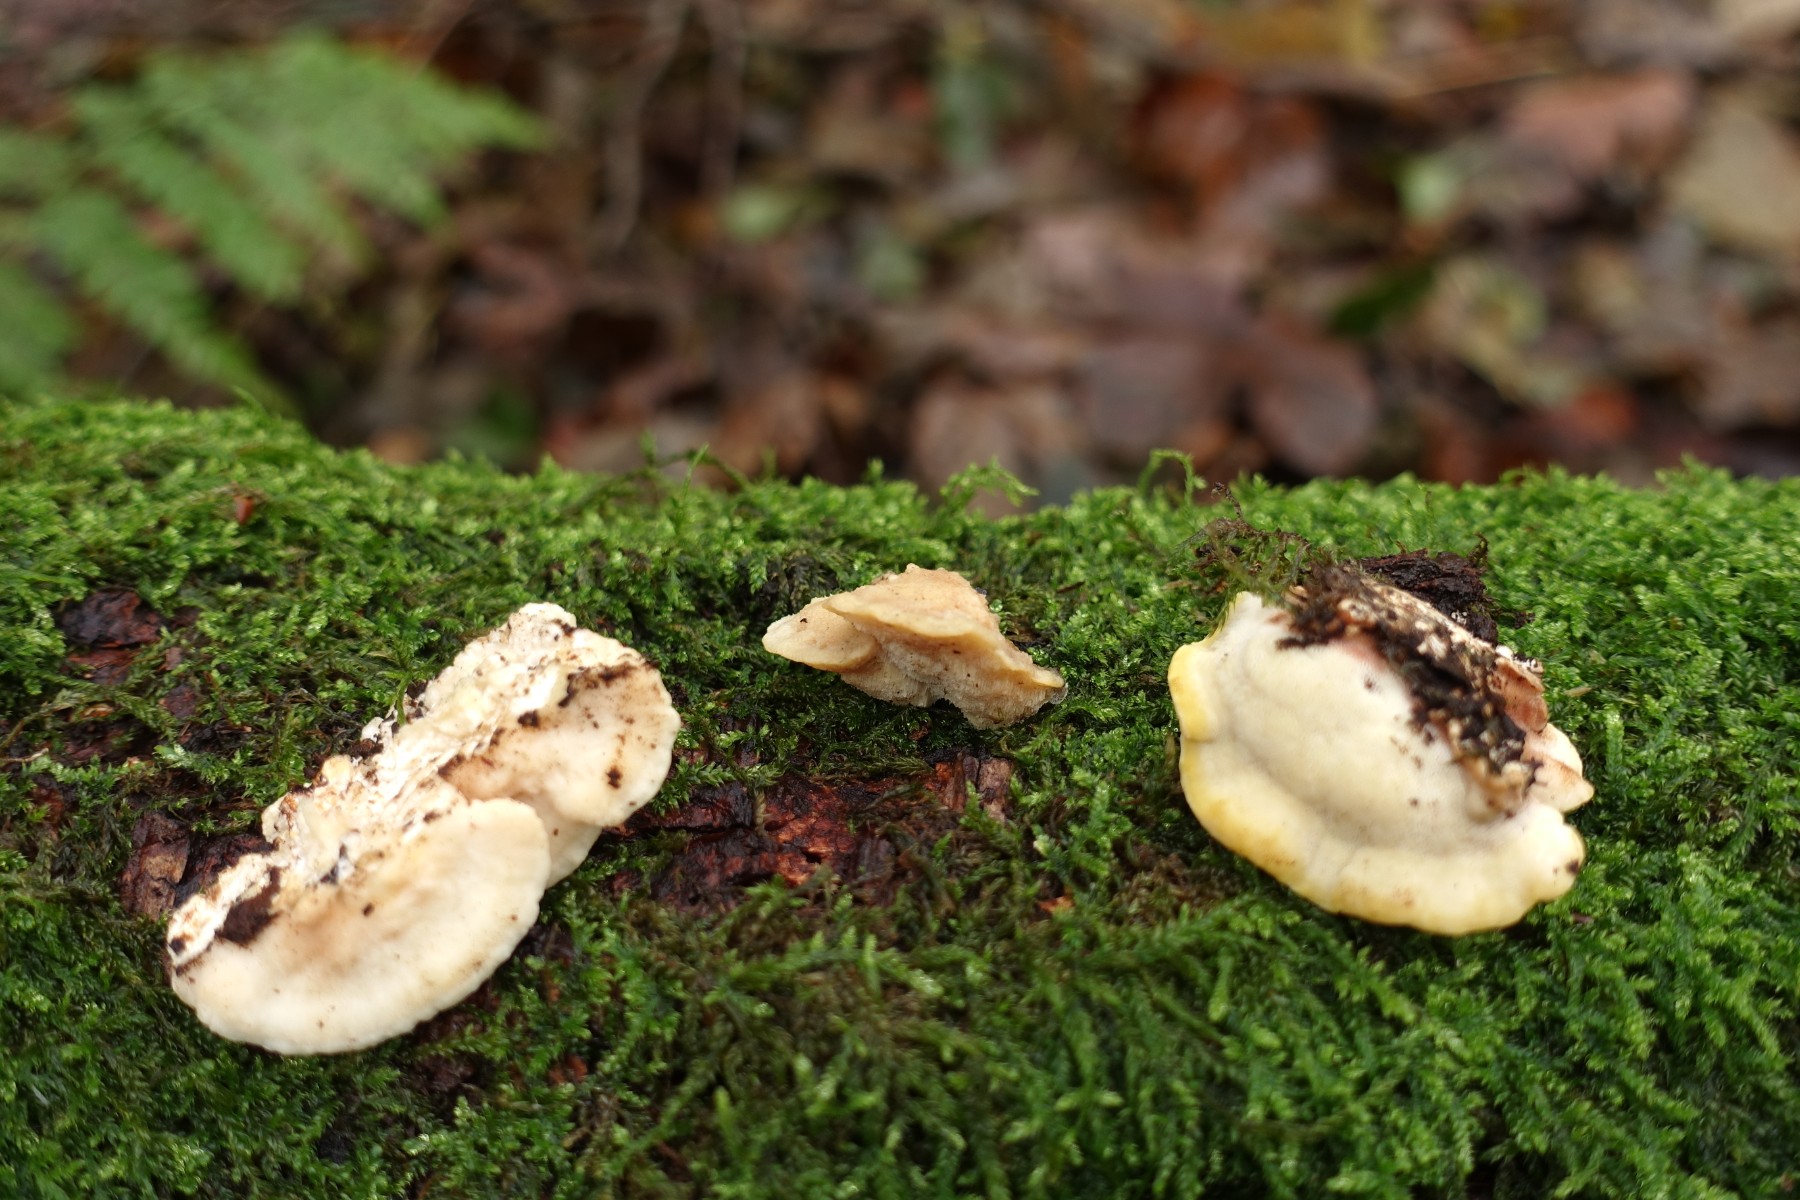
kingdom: Fungi
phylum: Basidiomycota
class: Agaricomycetes
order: Polyporales
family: Steccherinaceae
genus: Antrodiella
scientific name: Antrodiella serpula
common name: gulrandet elastikporesvamp
